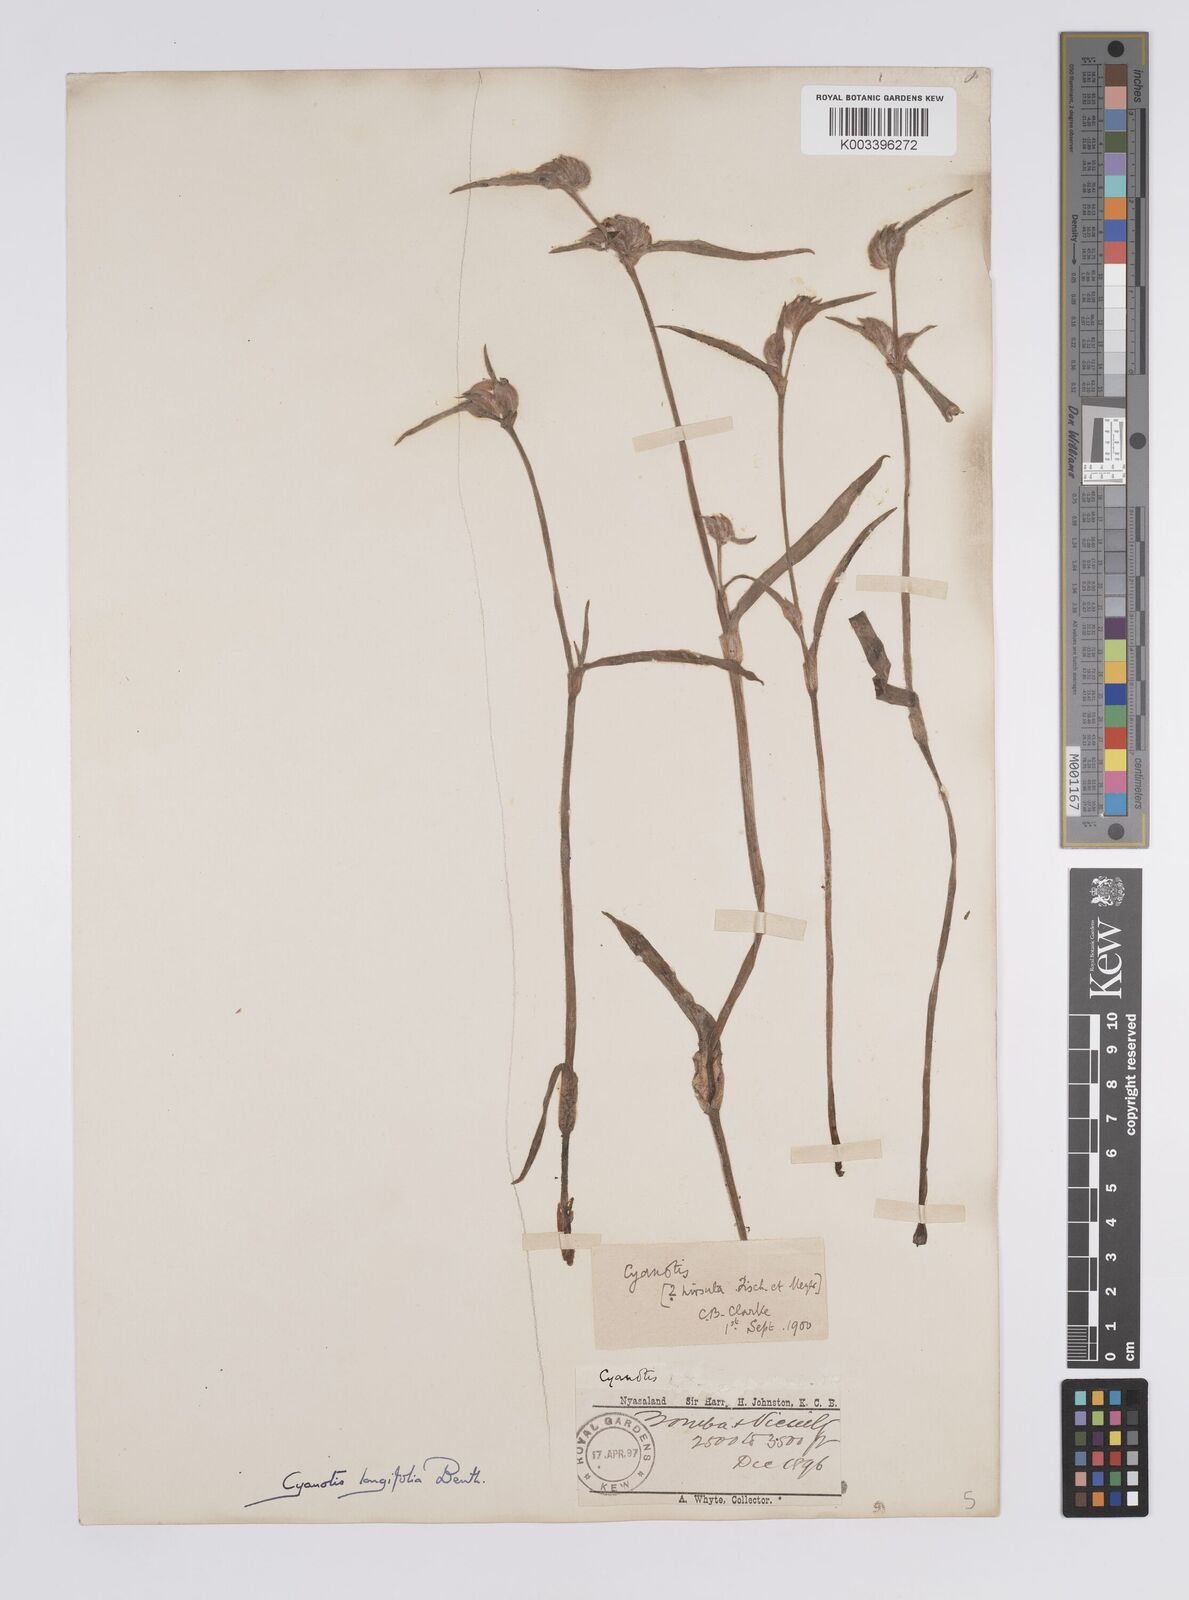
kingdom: Plantae
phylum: Tracheophyta
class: Liliopsida
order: Commelinales
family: Commelinaceae
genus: Cyanotis
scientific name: Cyanotis longifolia
